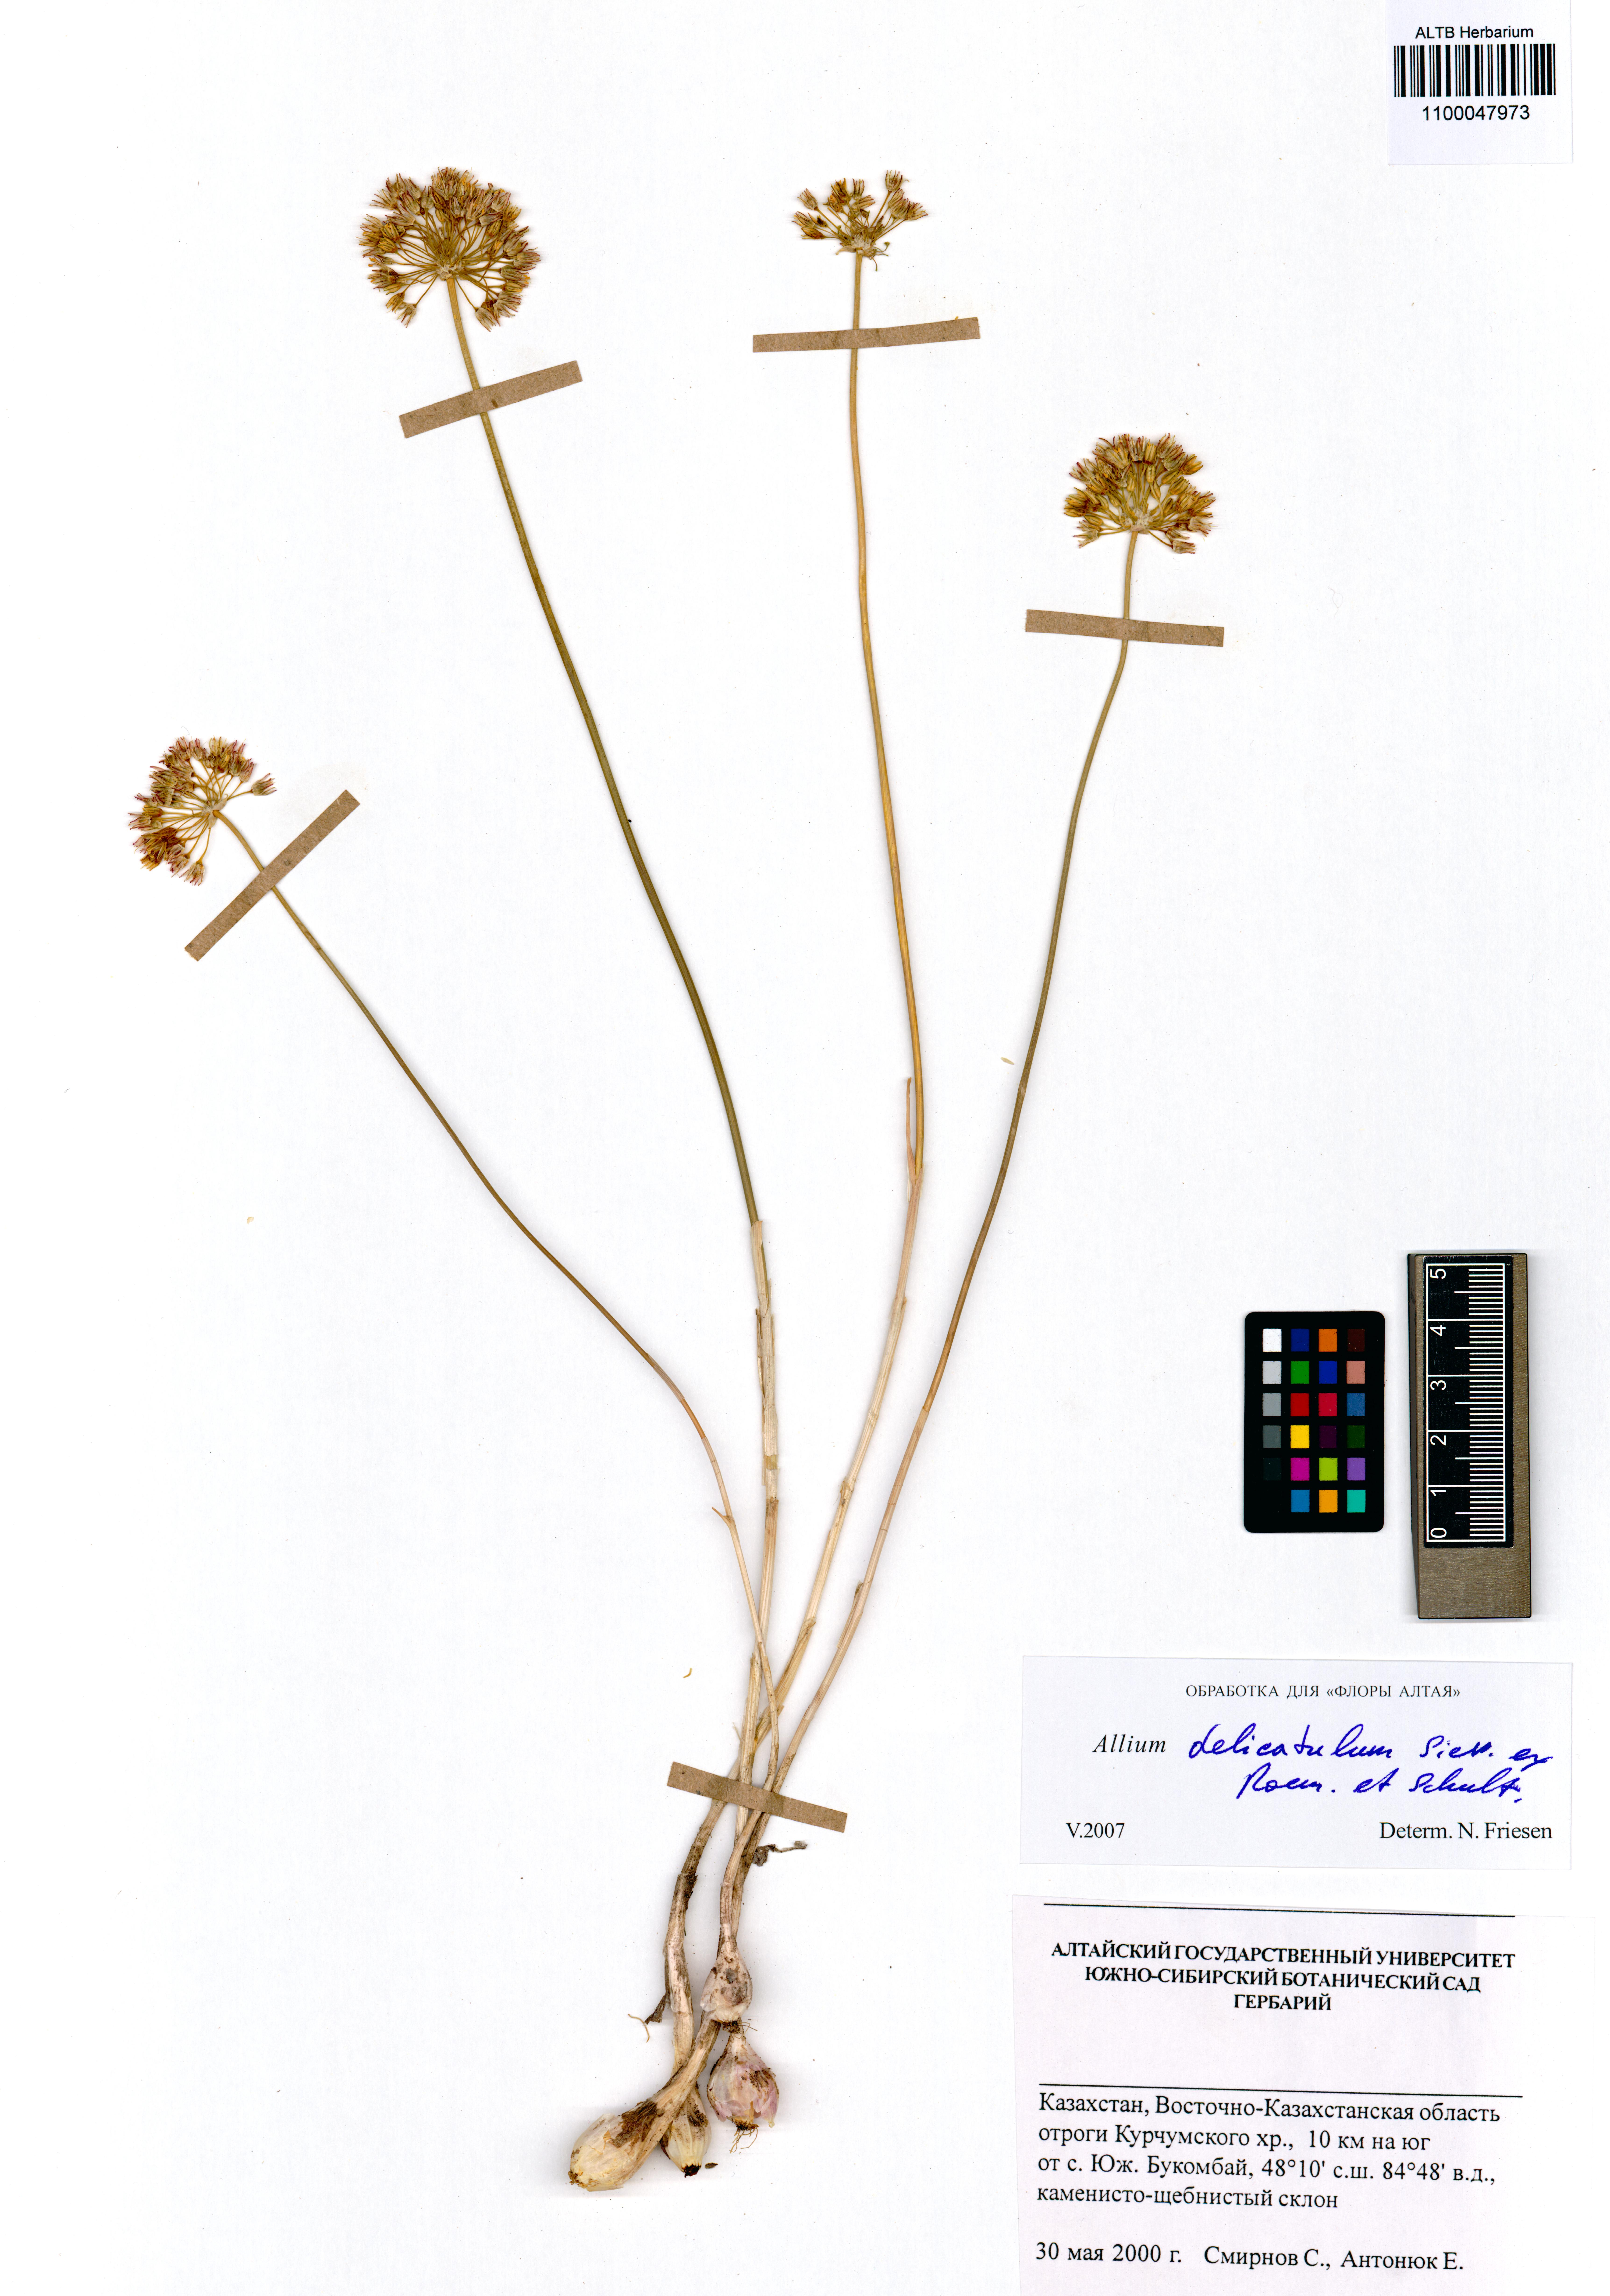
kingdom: Plantae
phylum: Tracheophyta
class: Liliopsida
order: Asparagales
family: Amaryllidaceae
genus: Allium
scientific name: Allium delicatulum
